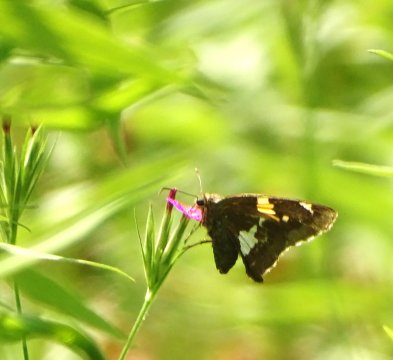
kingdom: Animalia
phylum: Arthropoda
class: Insecta
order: Lepidoptera
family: Hesperiidae
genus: Epargyreus
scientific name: Epargyreus clarus
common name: Silver-spotted Skipper
